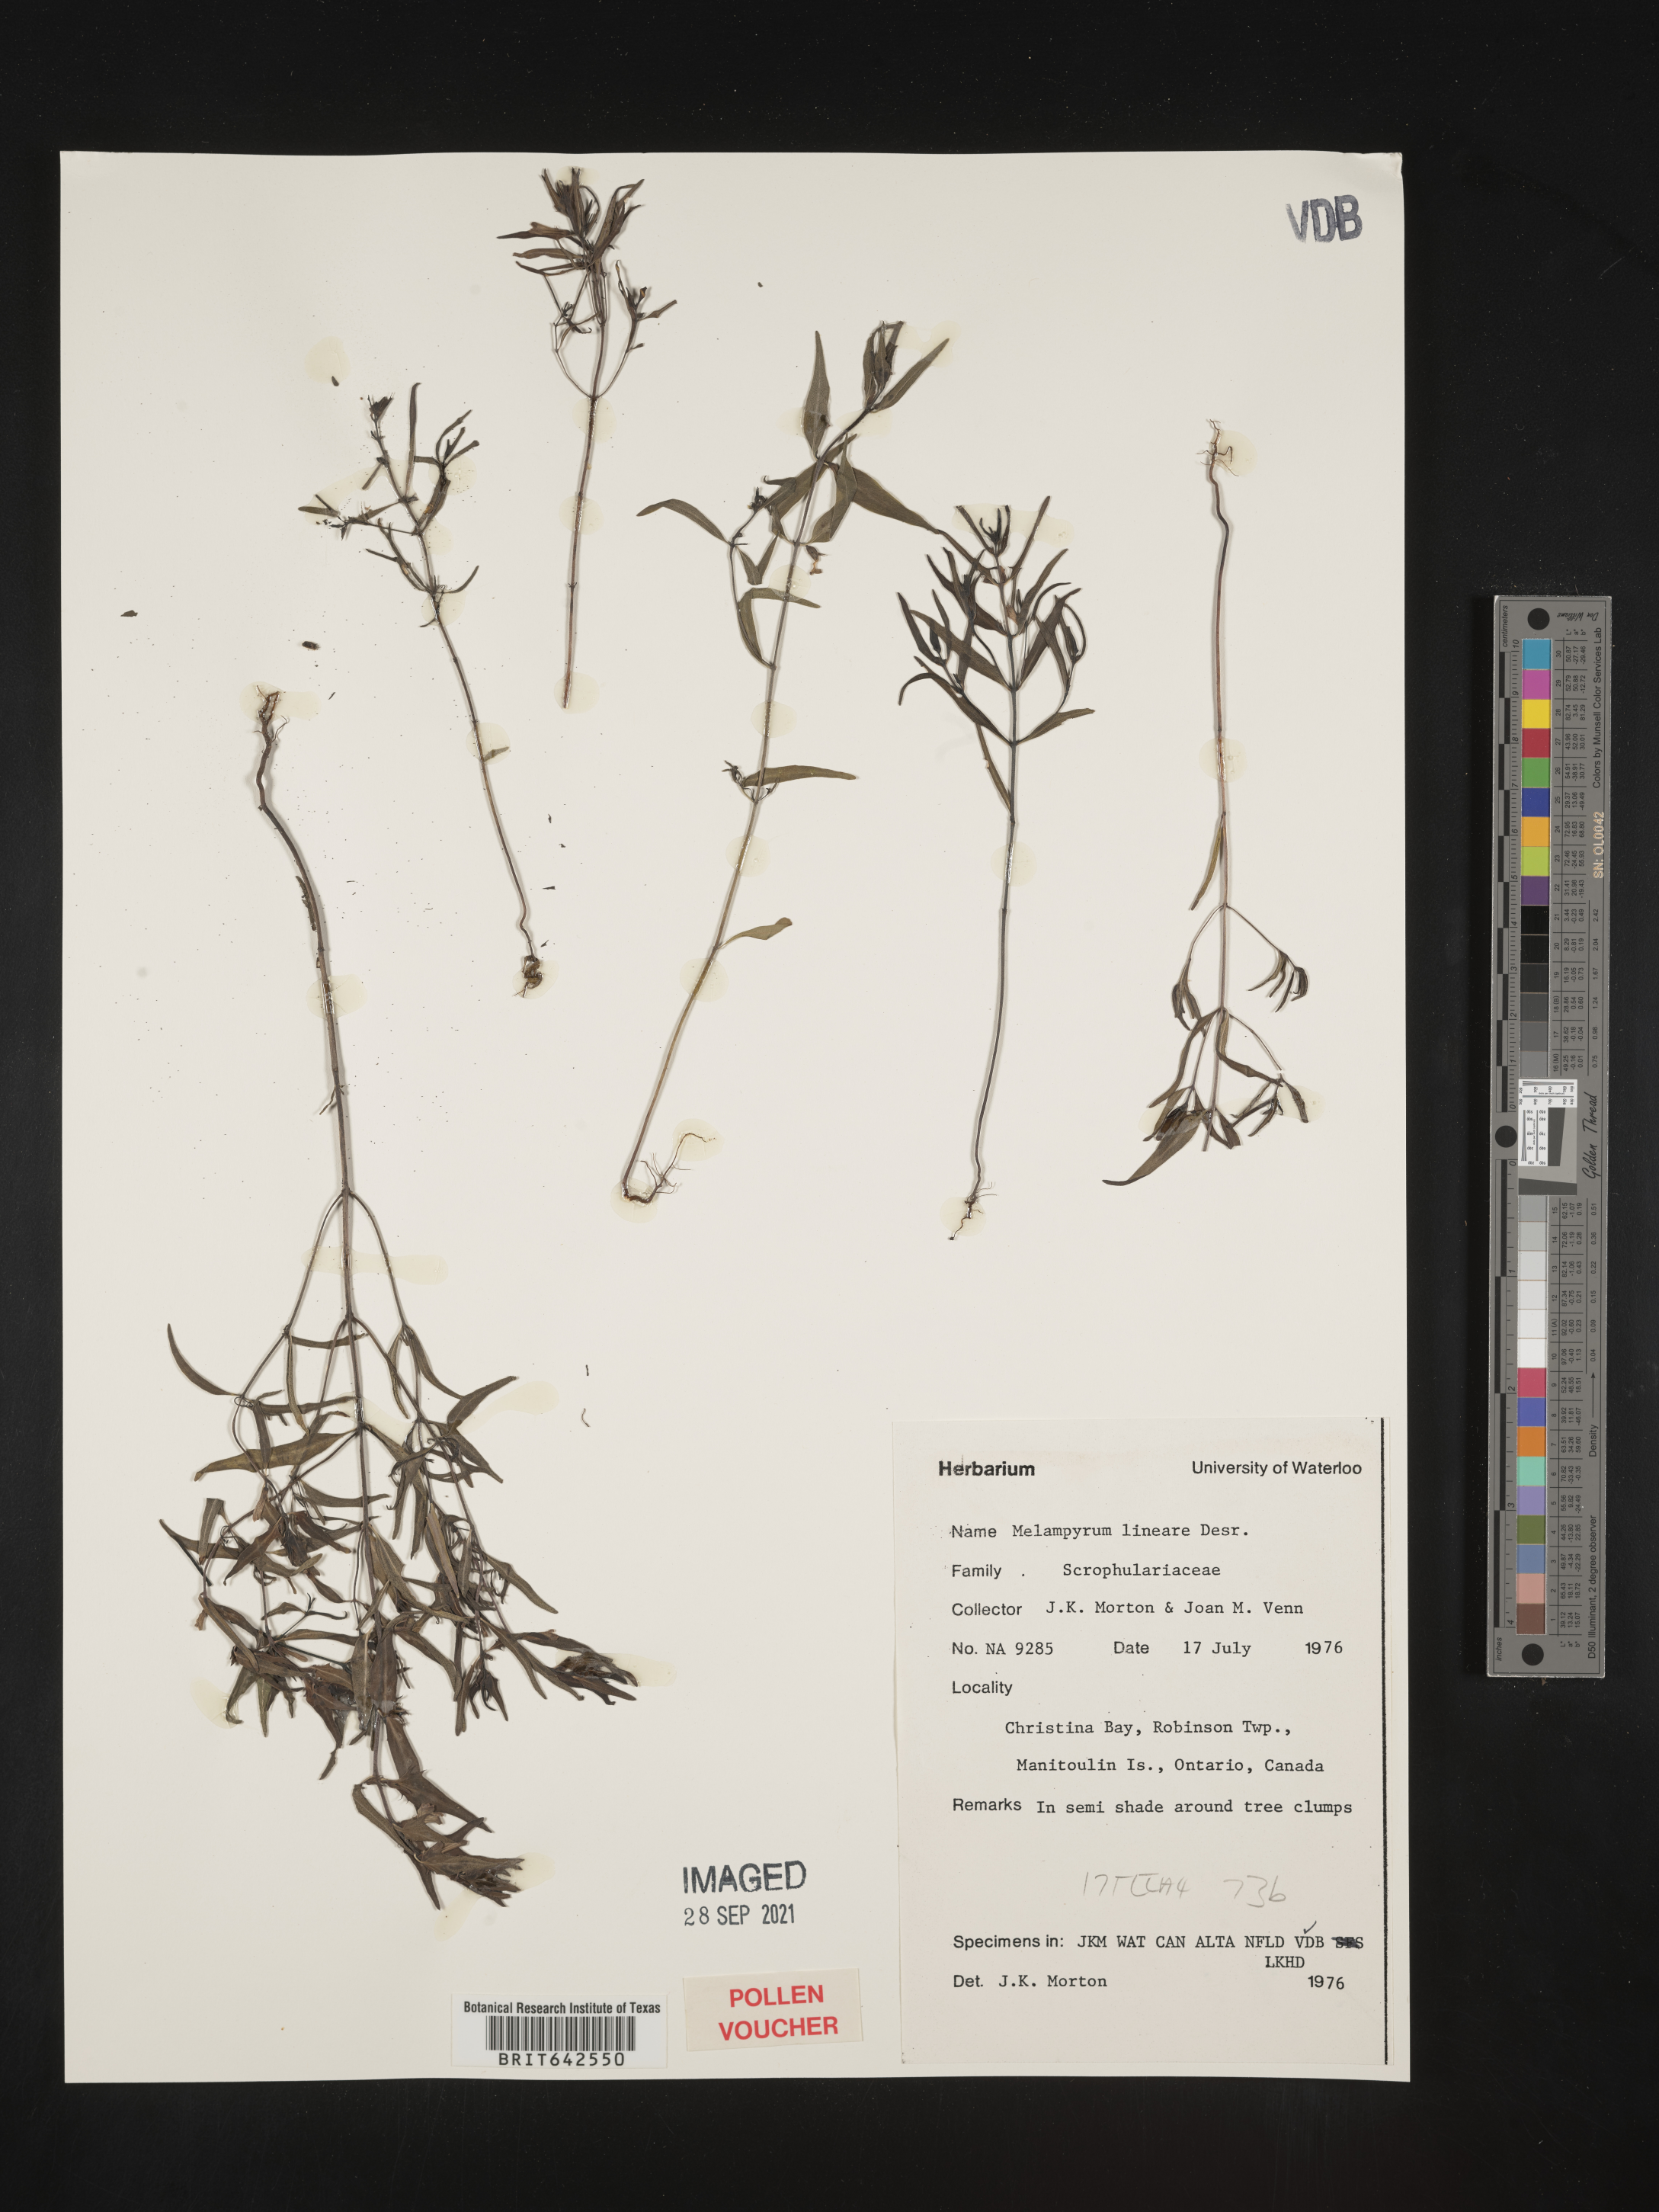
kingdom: Plantae
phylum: Tracheophyta
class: Magnoliopsida
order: Lamiales
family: Orobanchaceae
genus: Melampyrum
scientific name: Melampyrum
